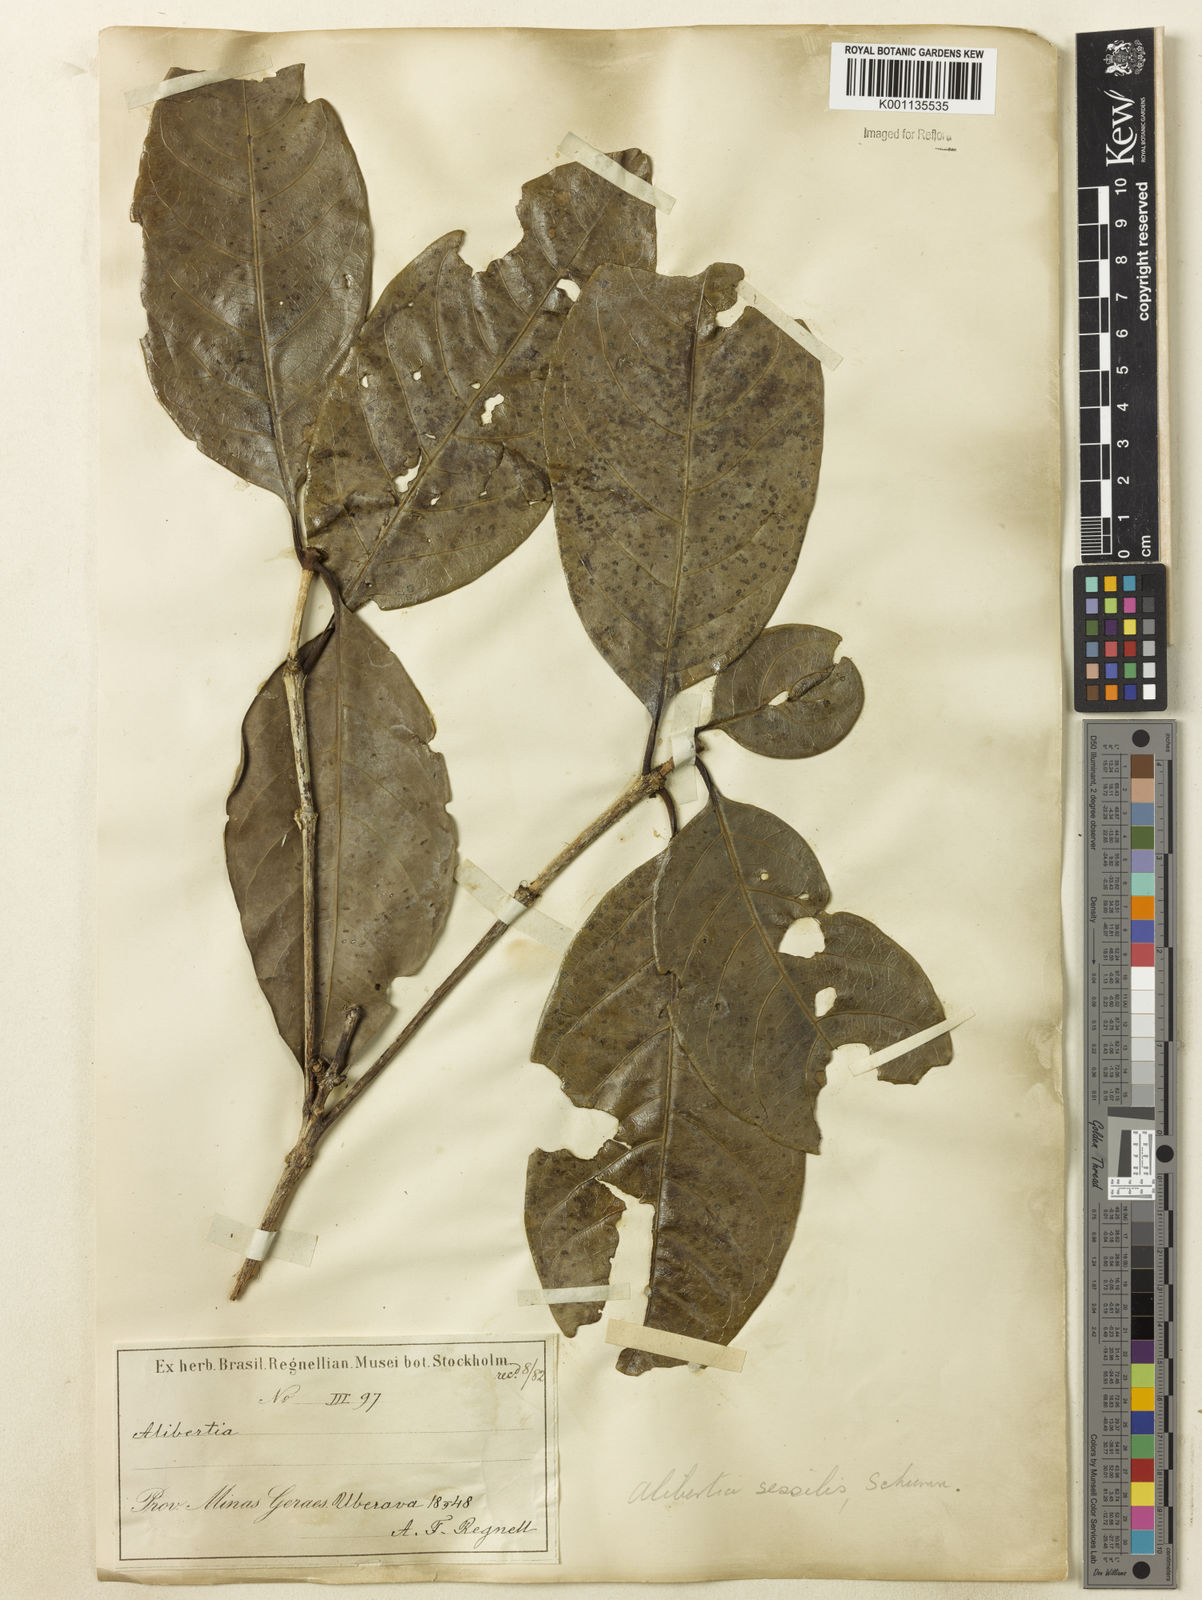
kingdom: Plantae
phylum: Tracheophyta
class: Magnoliopsida
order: Gentianales
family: Rubiaceae
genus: Cordiera
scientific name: Cordiera sessilis
